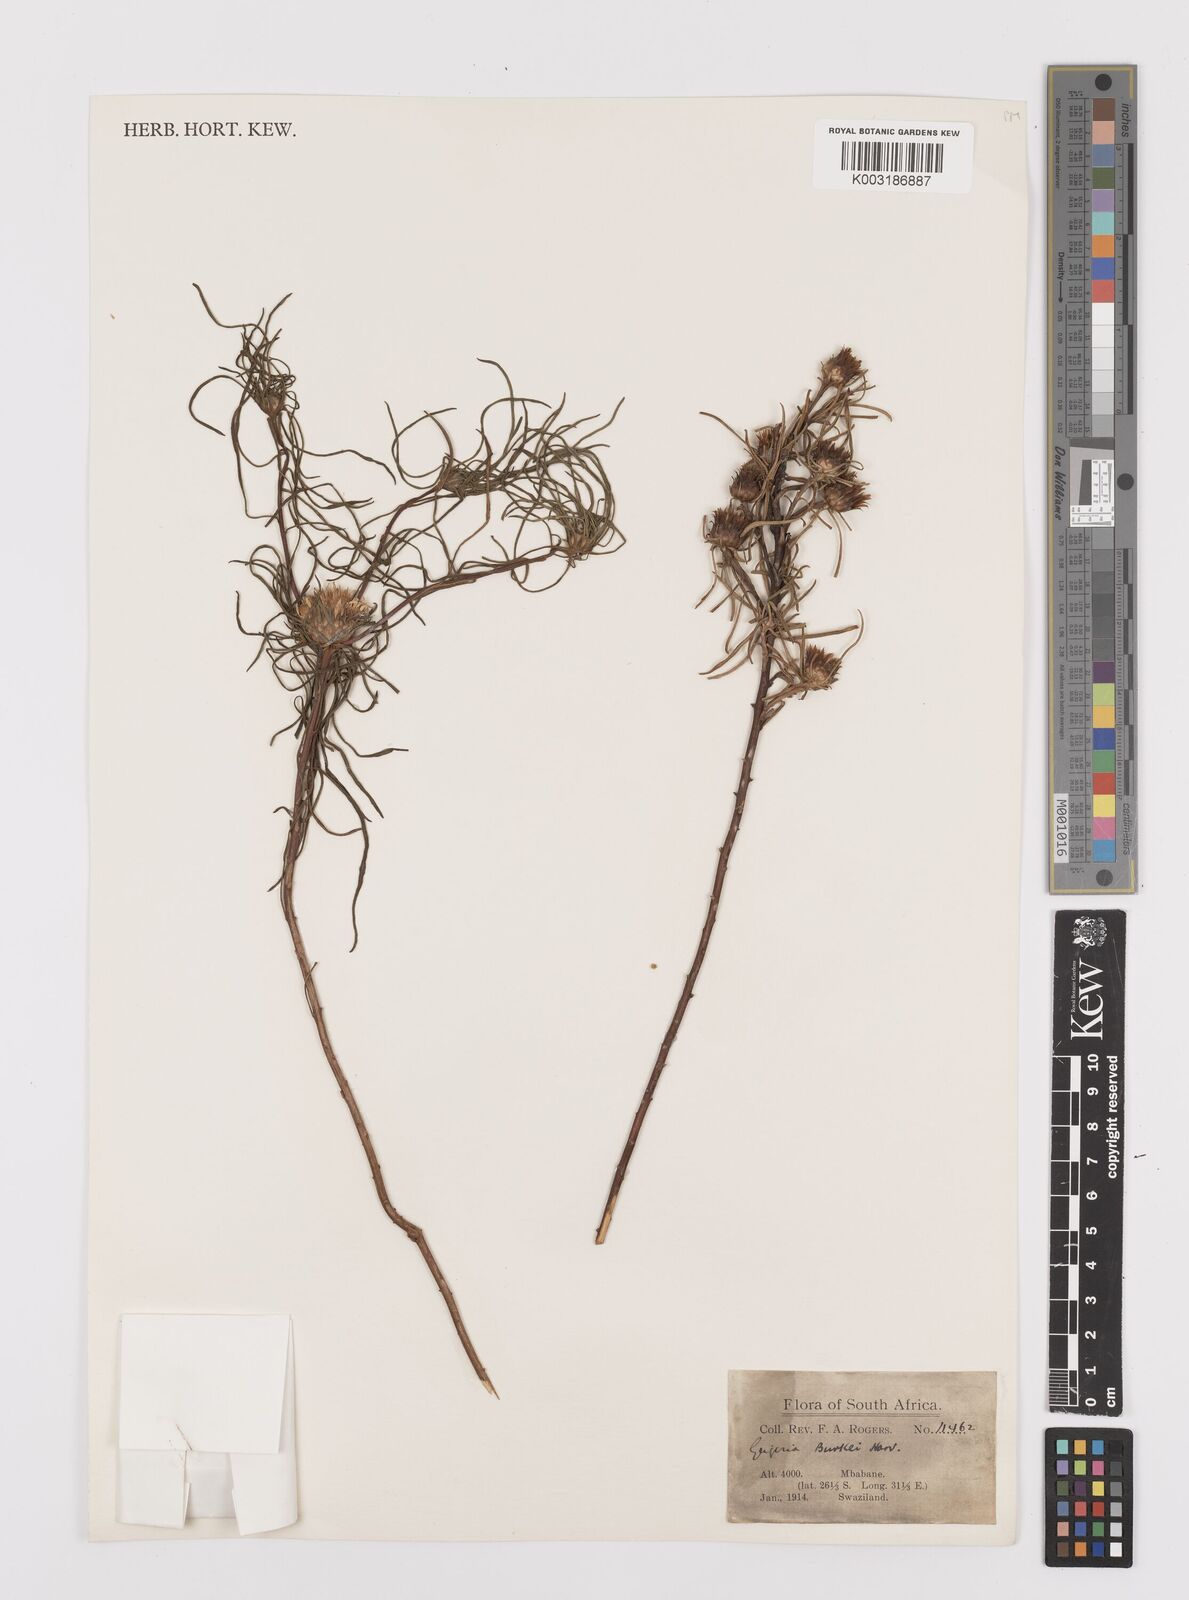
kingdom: Plantae
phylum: Tracheophyta
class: Magnoliopsida
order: Asterales
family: Asteraceae
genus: Geigeria
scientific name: Geigeria burkei
